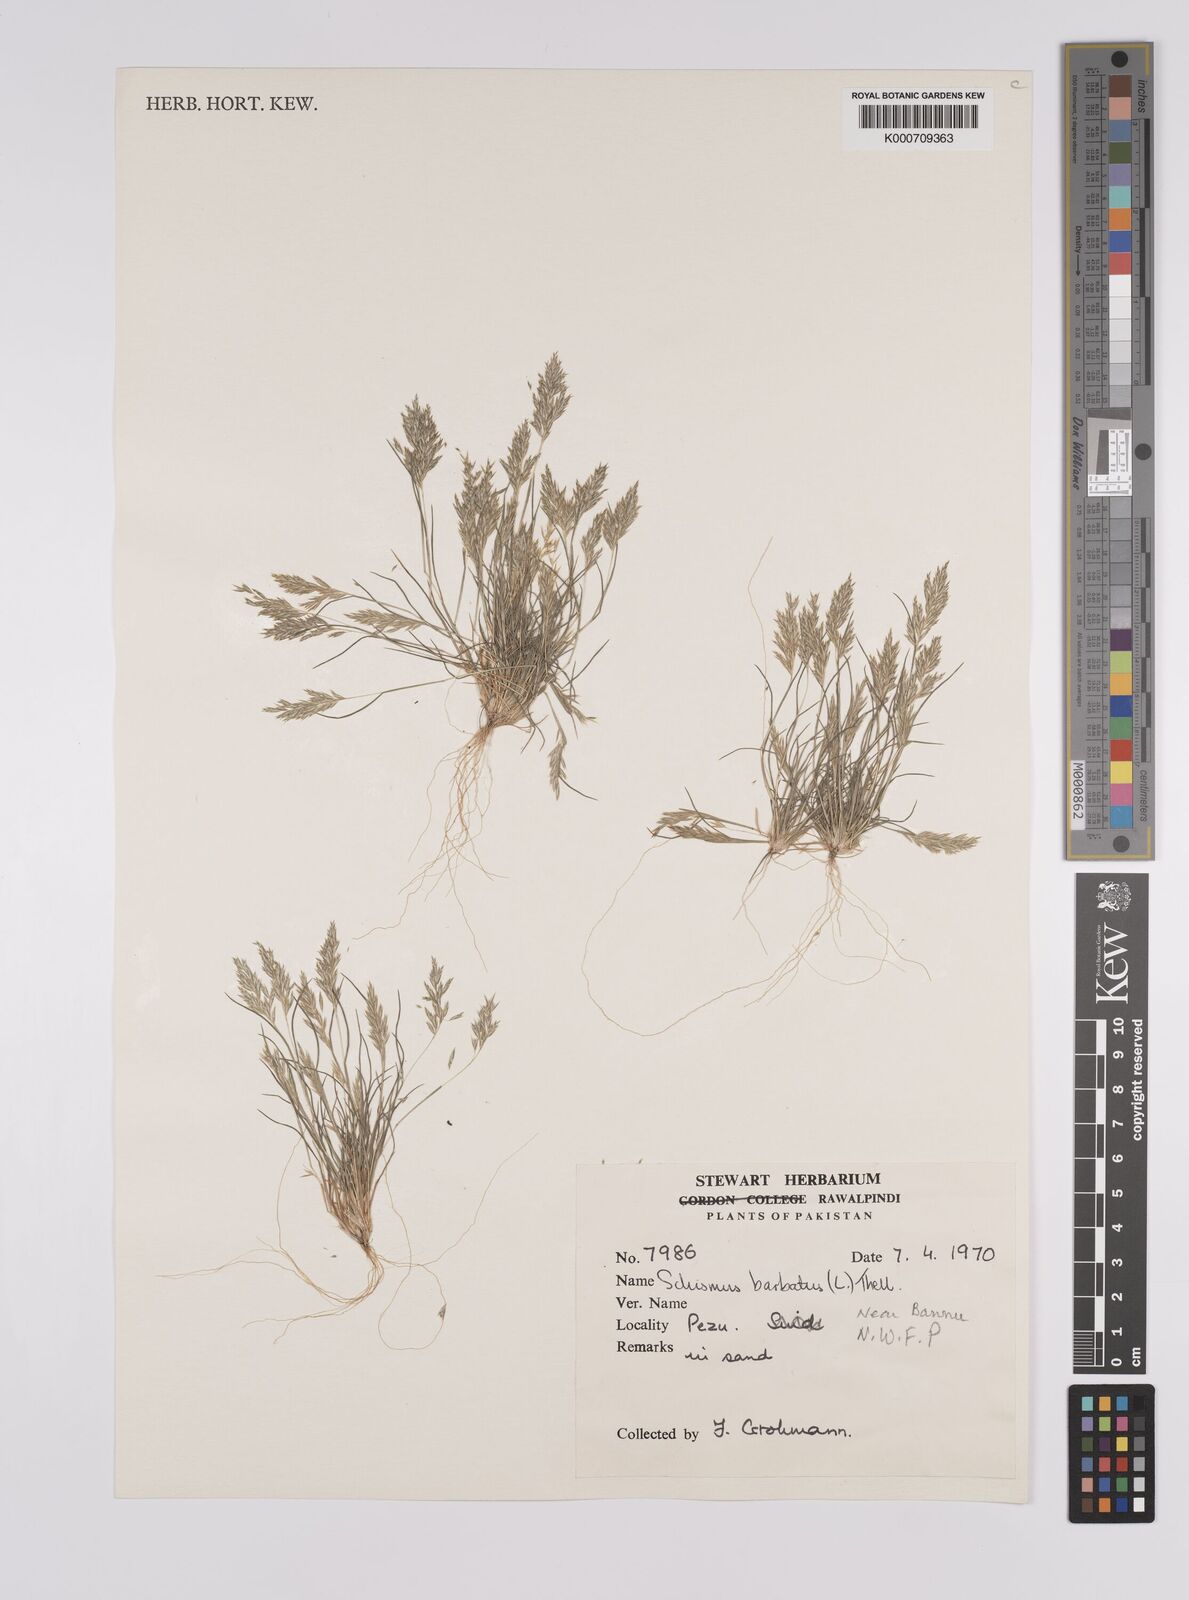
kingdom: Plantae
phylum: Tracheophyta
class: Liliopsida
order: Poales
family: Poaceae
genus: Schismus
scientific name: Schismus arabicus
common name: Arabian schismus
